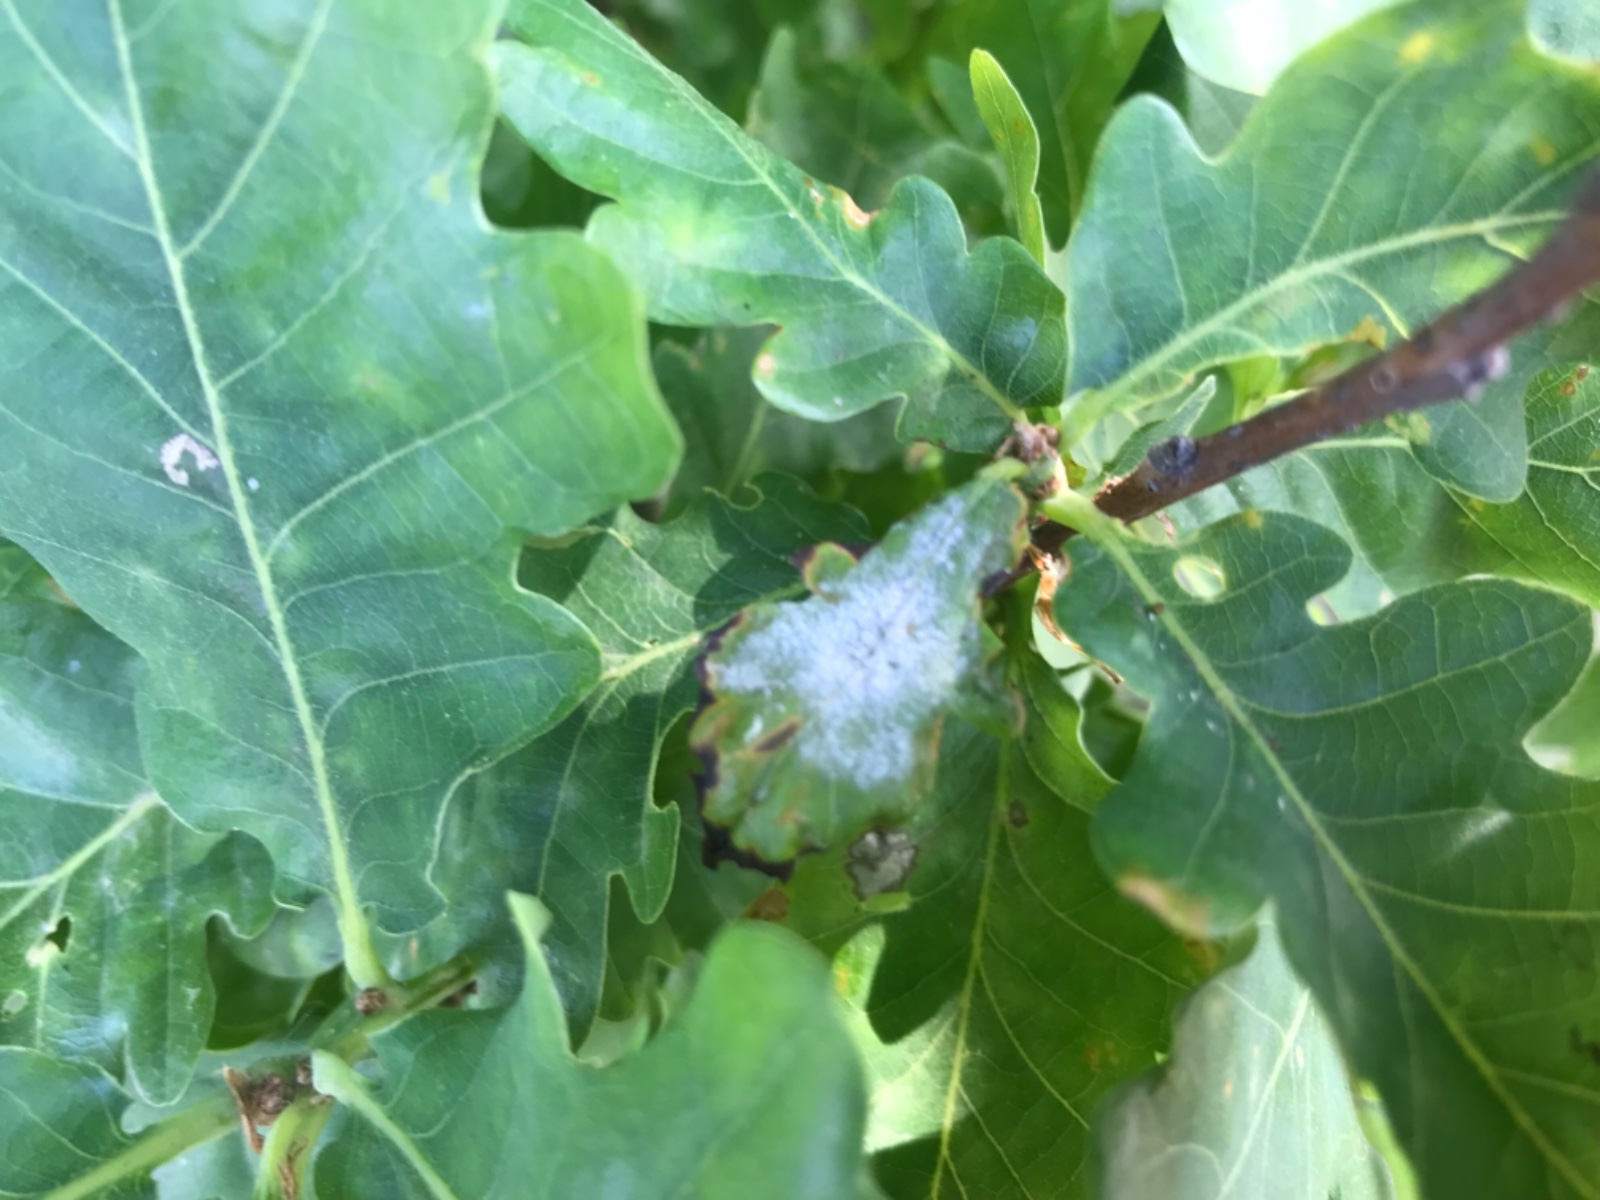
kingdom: Fungi
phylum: Ascomycota
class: Leotiomycetes
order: Helotiales
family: Erysiphaceae
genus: Erysiphe
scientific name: Erysiphe alphitoides
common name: ege-meldug
